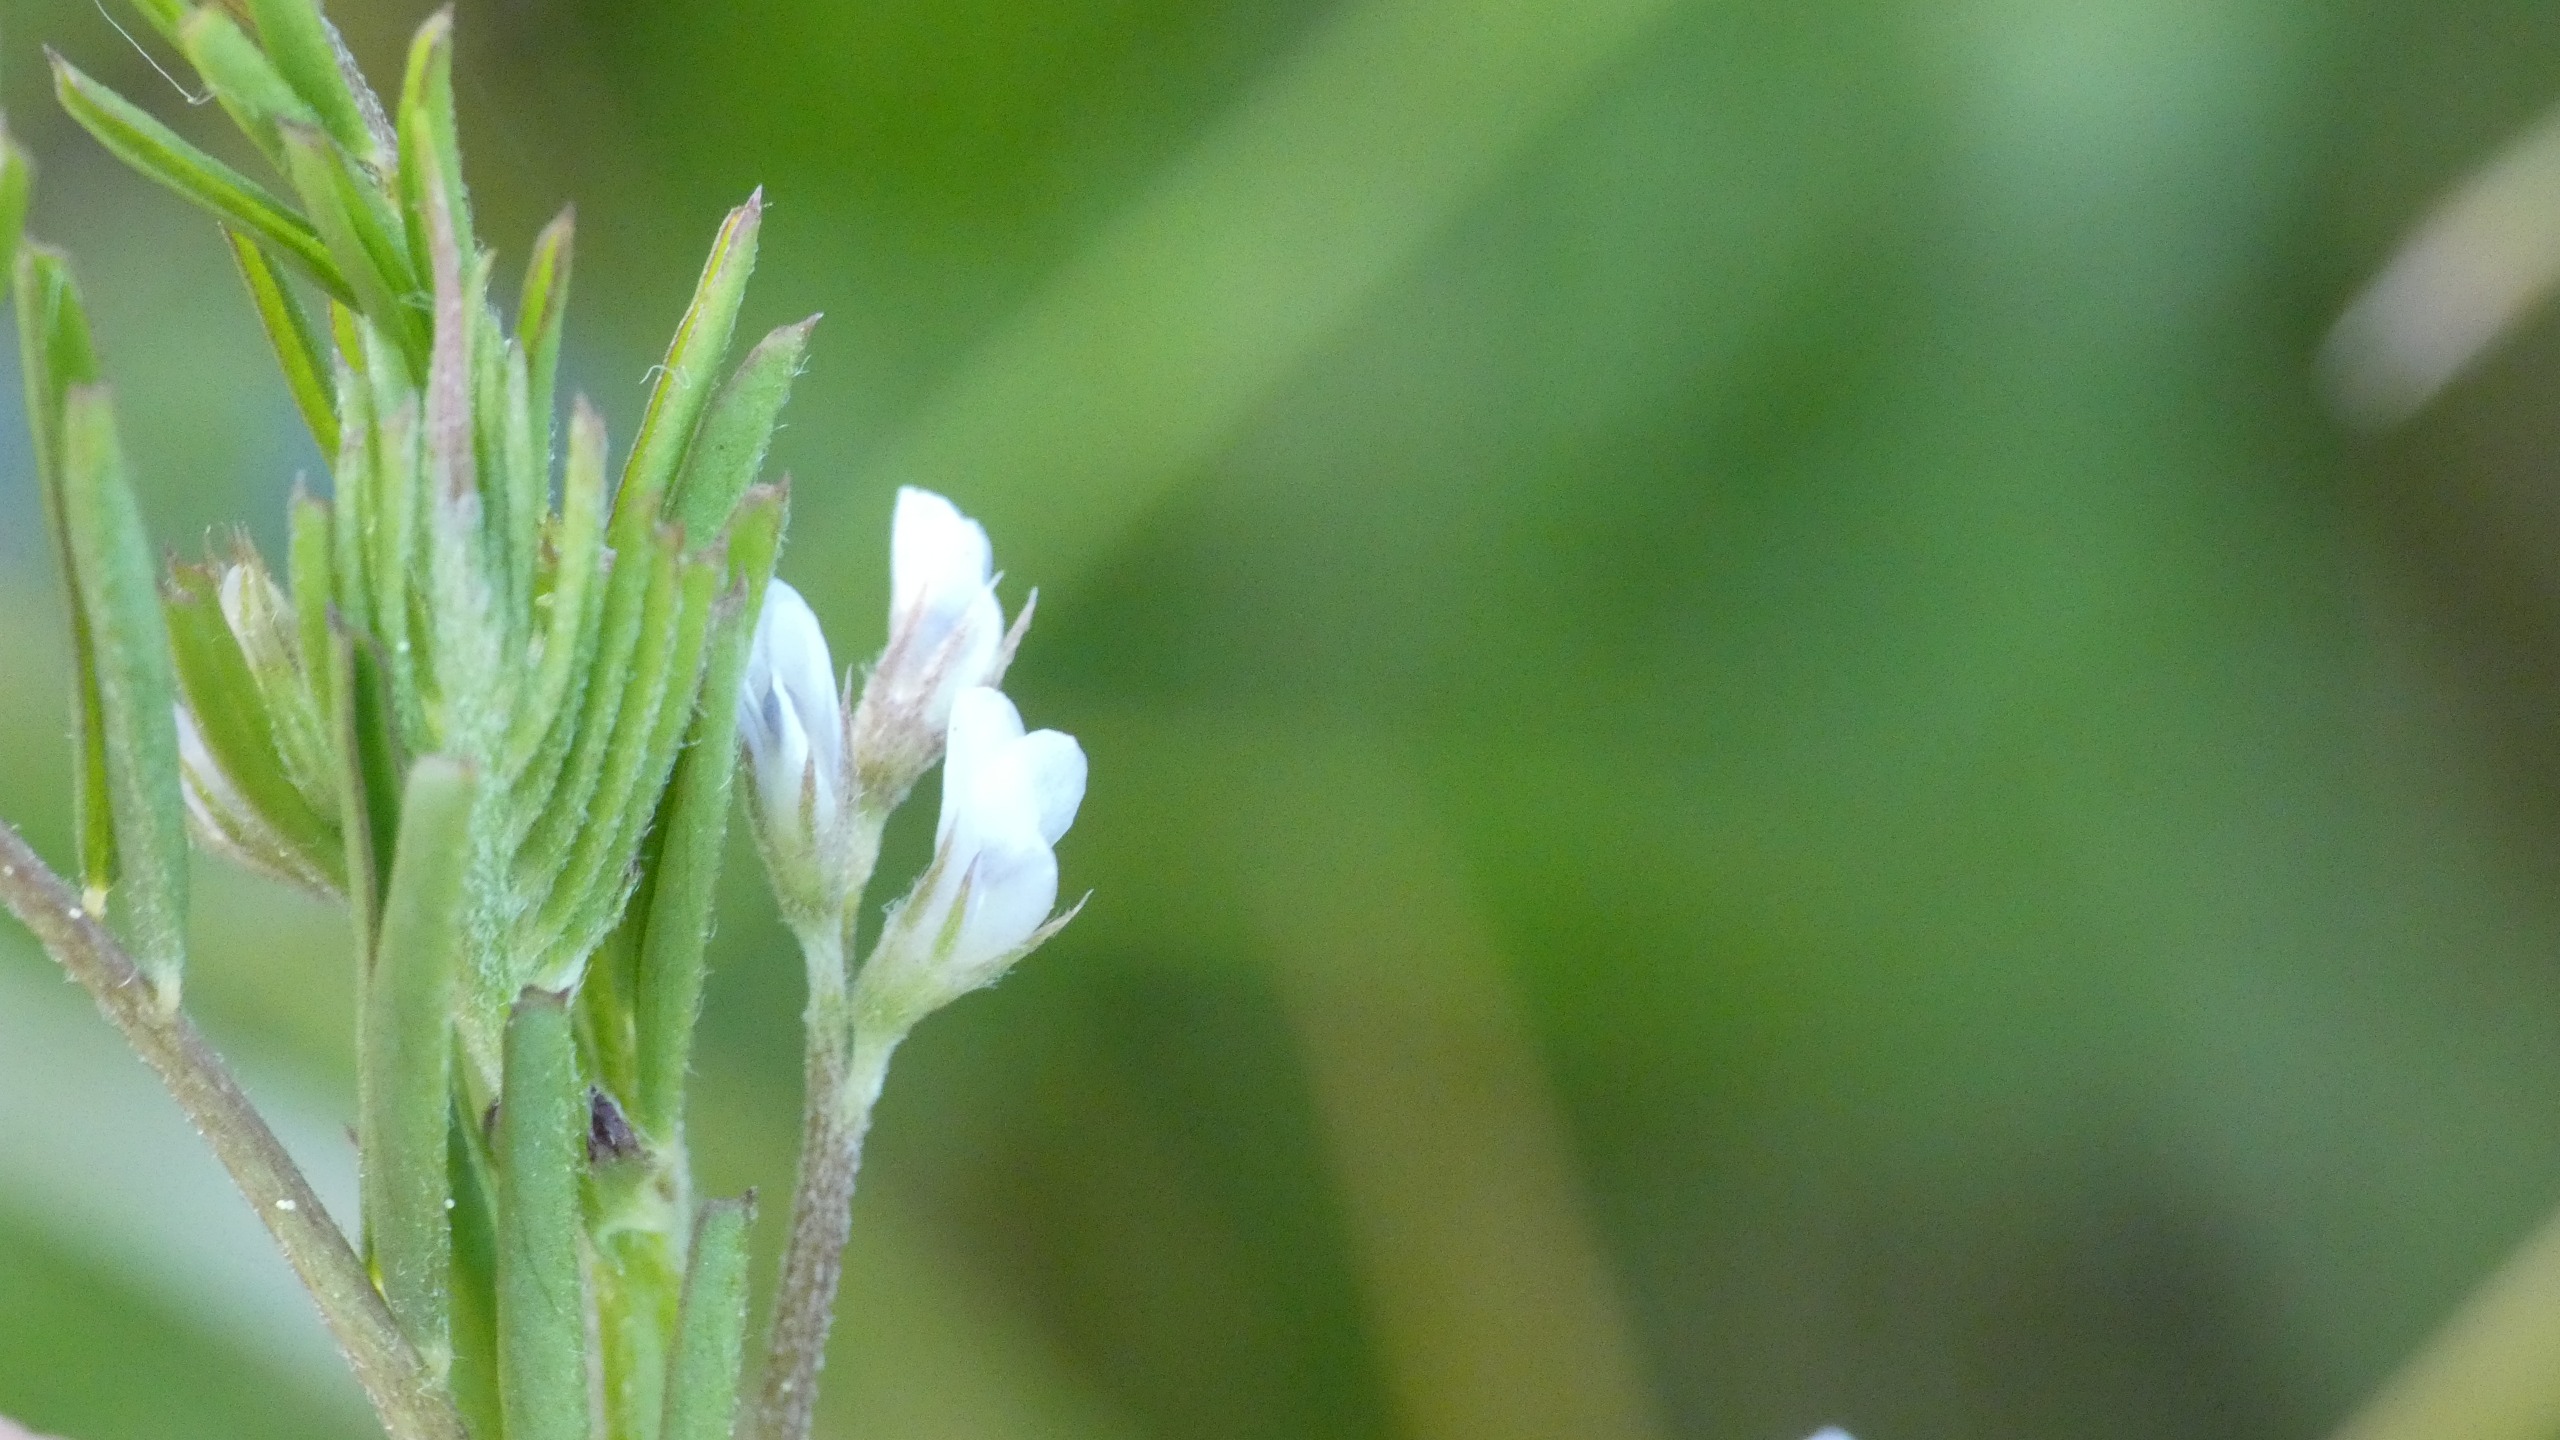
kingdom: Plantae
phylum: Tracheophyta
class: Magnoliopsida
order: Fabales
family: Fabaceae
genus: Vicia
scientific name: Vicia hirsuta
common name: Tofrøet vikke
